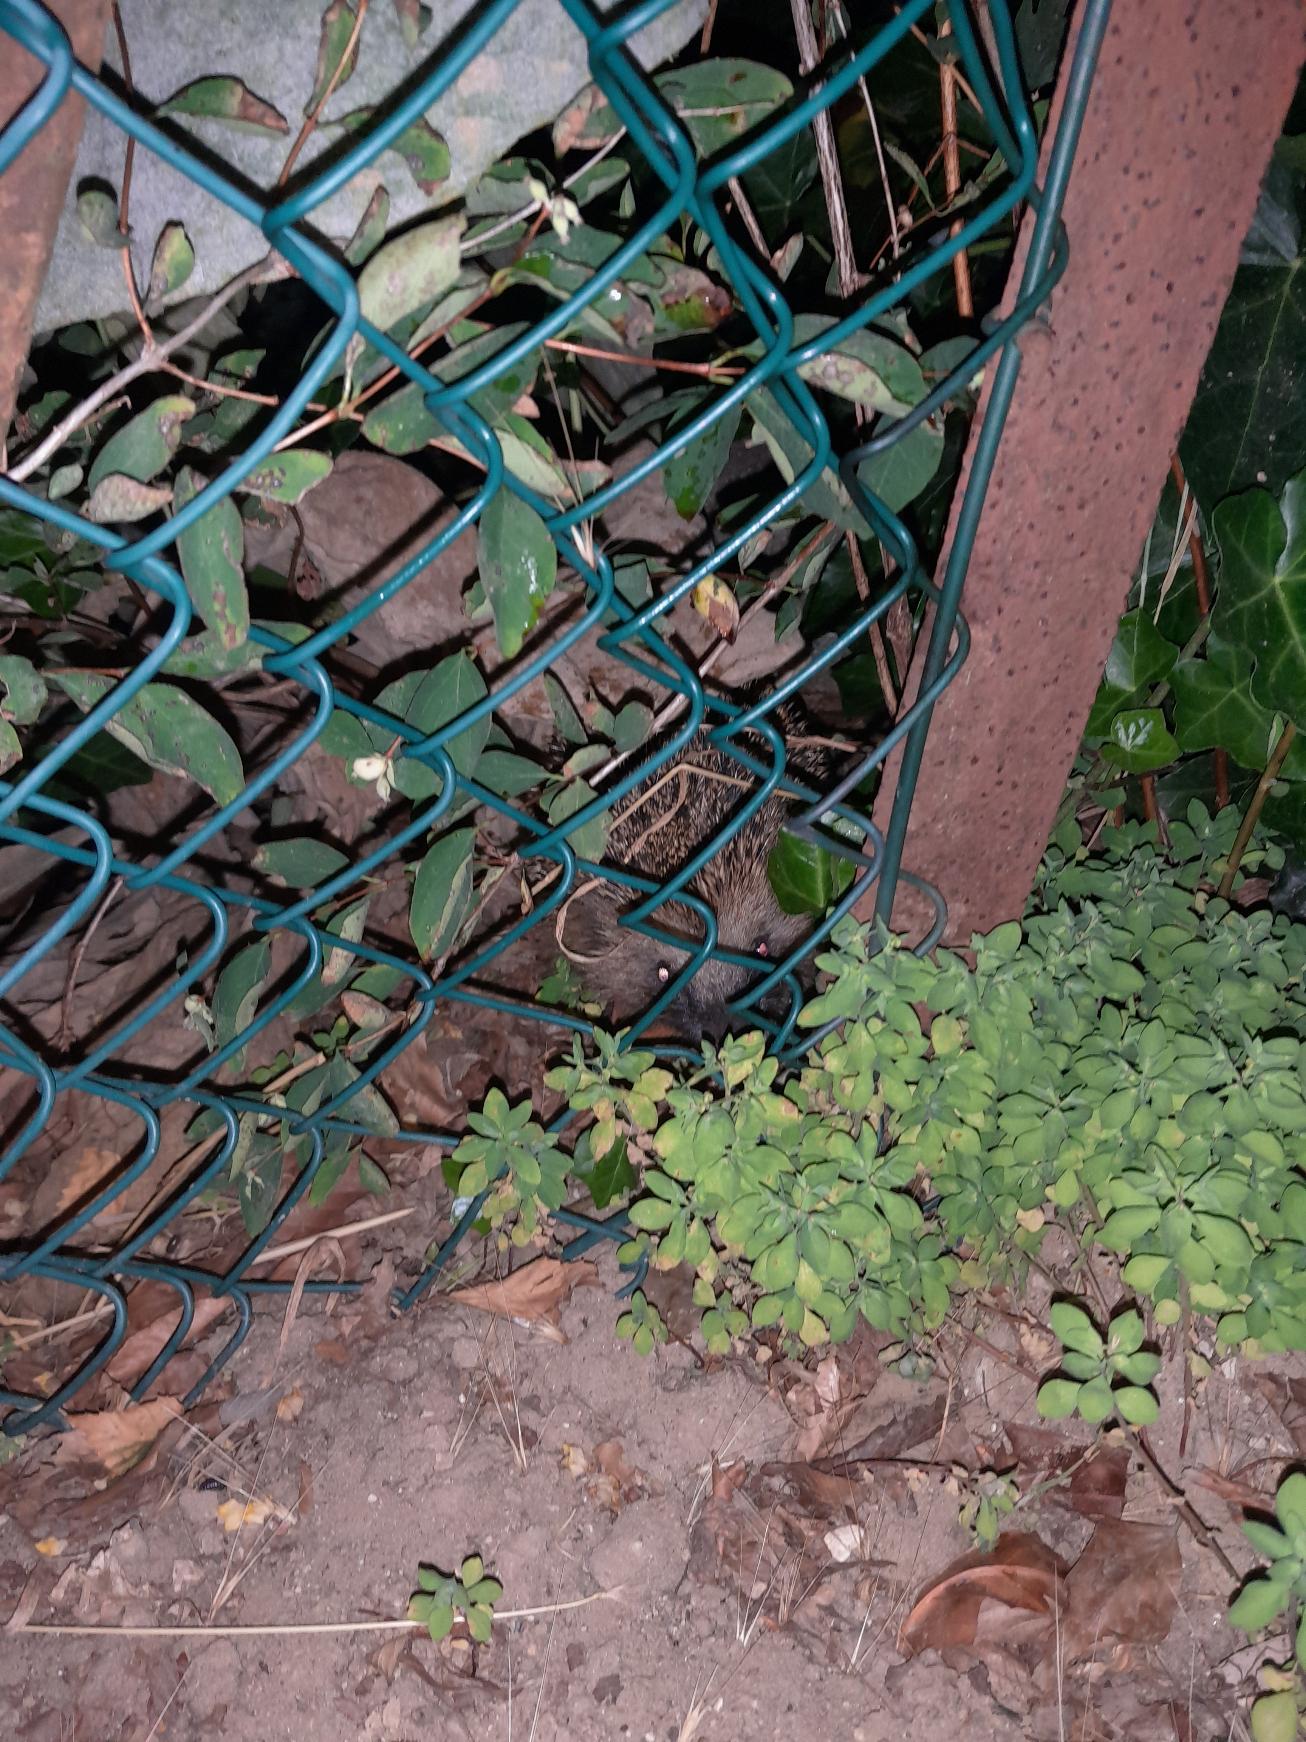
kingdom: Animalia
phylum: Chordata
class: Mammalia
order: Erinaceomorpha
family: Erinaceidae
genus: Erinaceus
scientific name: Erinaceus europaeus
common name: Pindsvin
